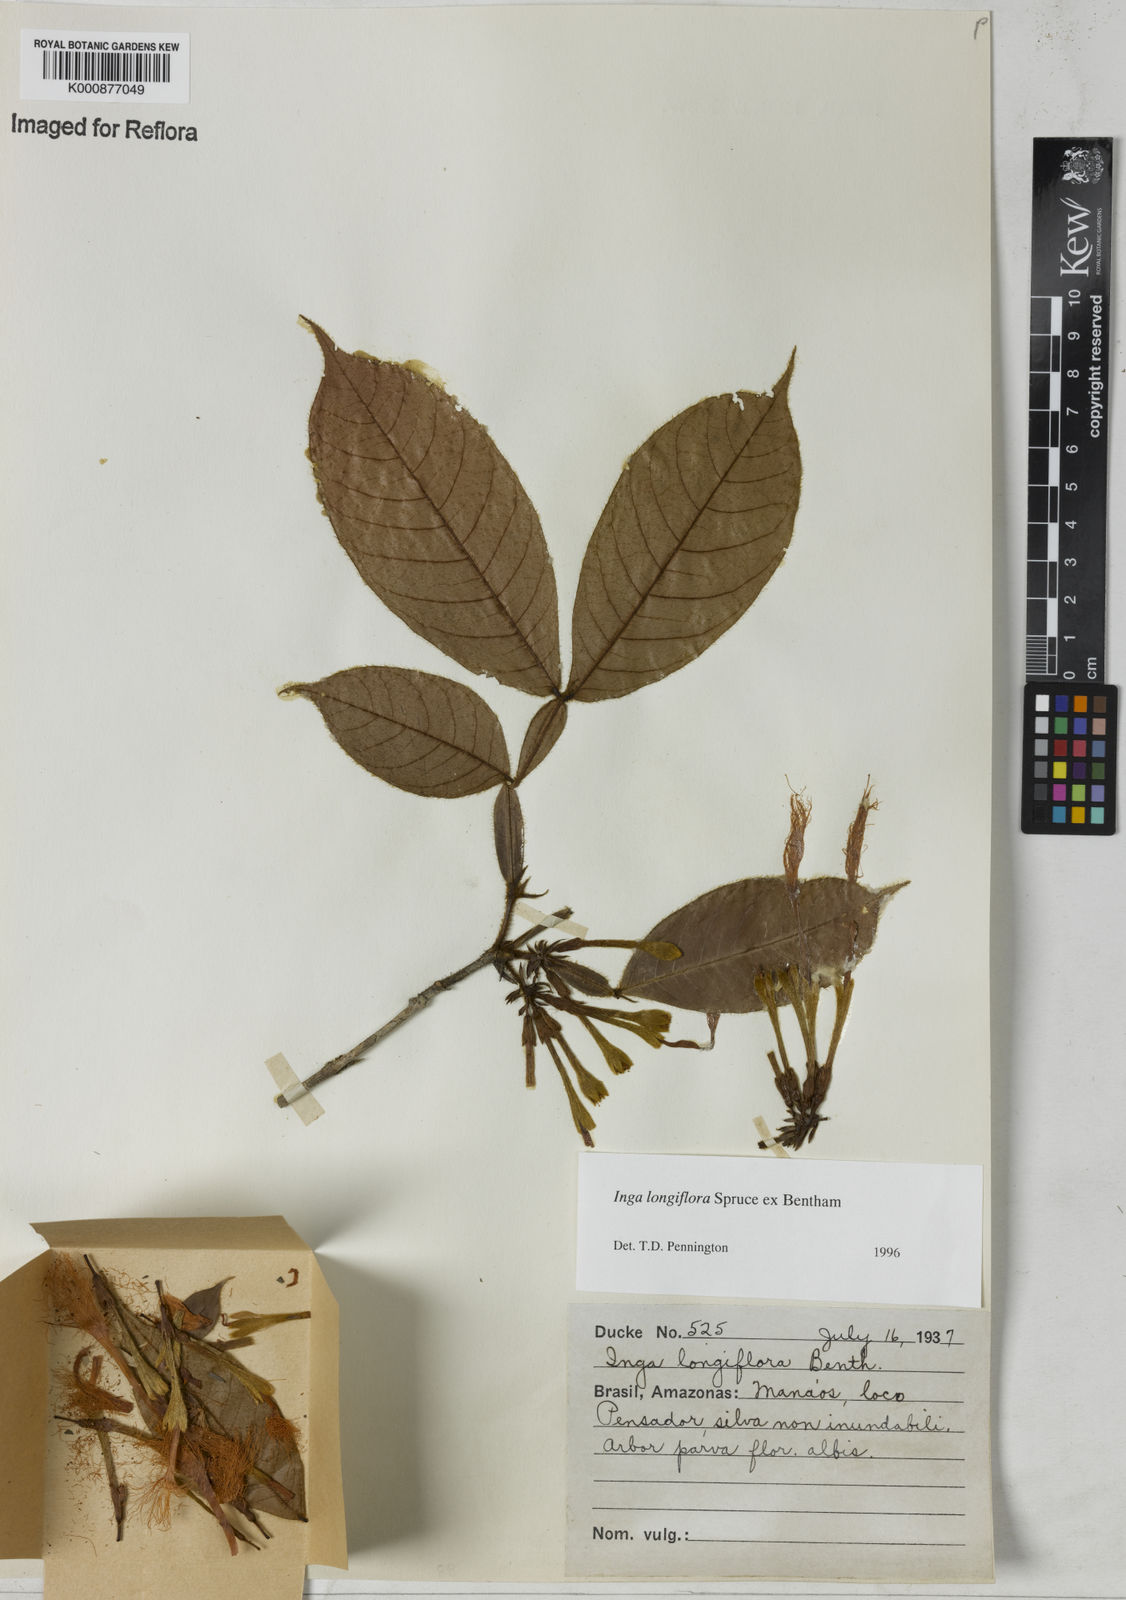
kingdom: Plantae
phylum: Tracheophyta
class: Magnoliopsida
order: Fabales
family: Fabaceae
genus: Inga
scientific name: Inga
